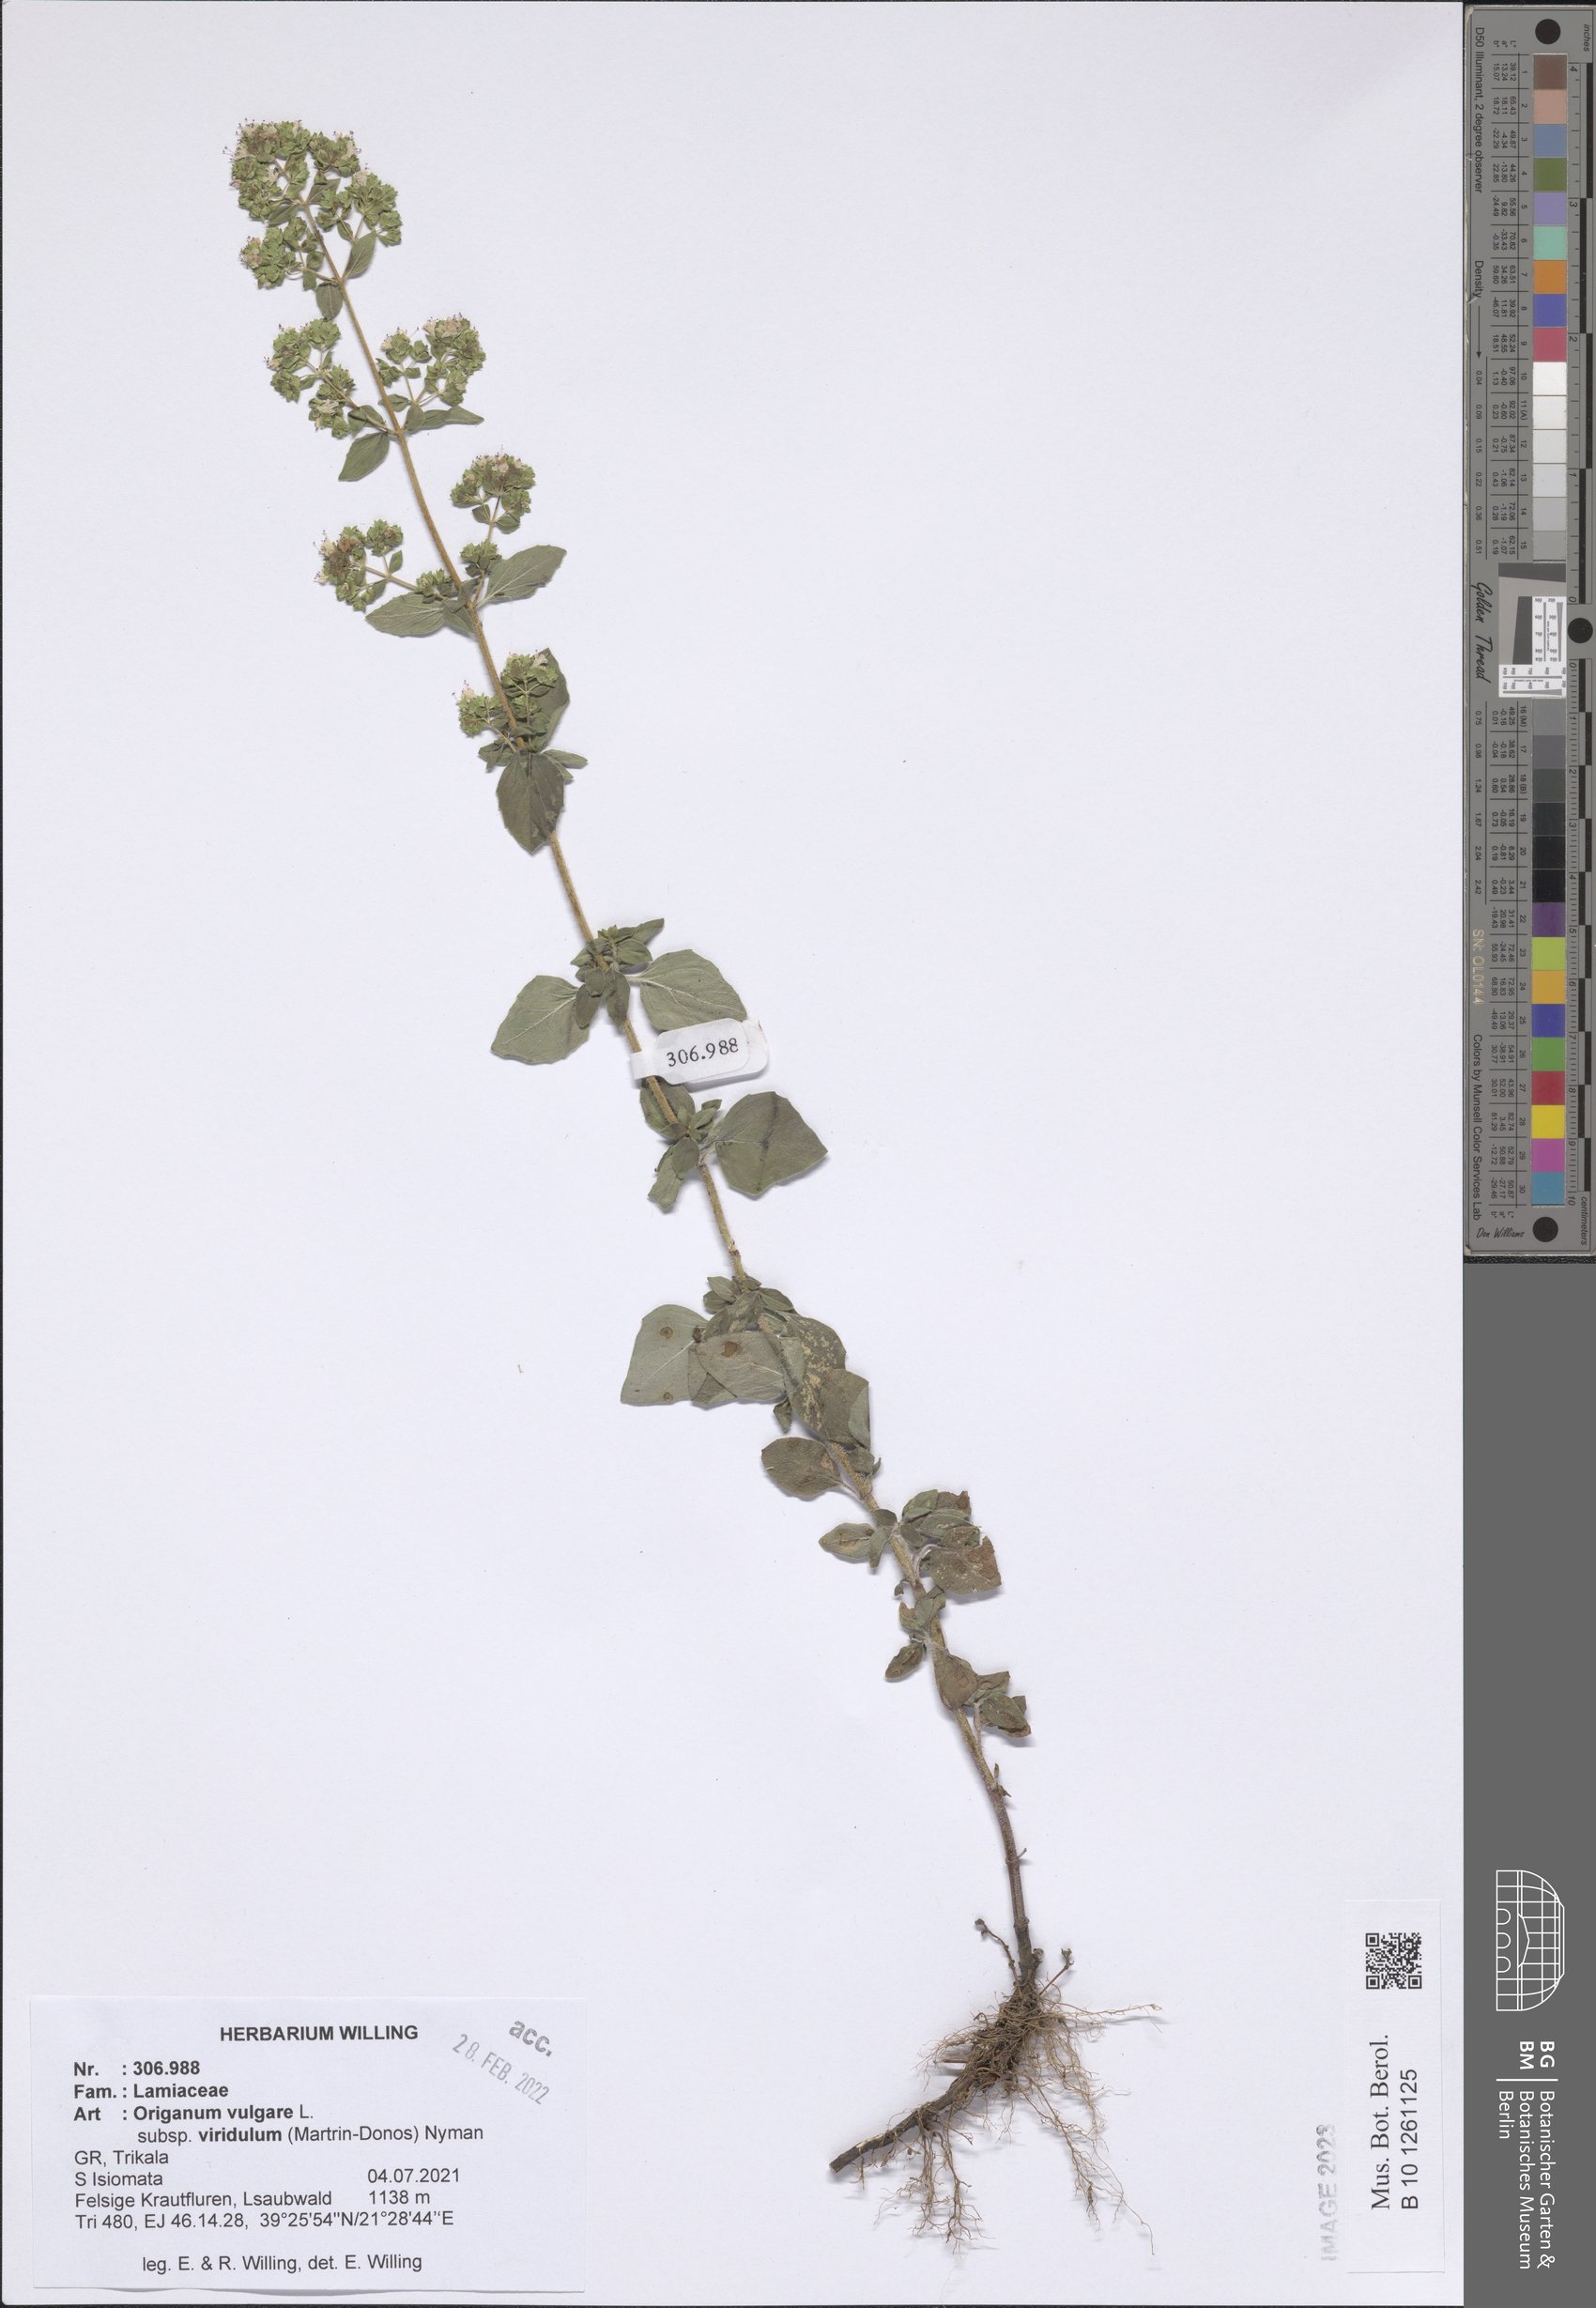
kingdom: Plantae
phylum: Tracheophyta
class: Magnoliopsida
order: Lamiales
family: Lamiaceae
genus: Origanum
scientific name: Origanum vulgare
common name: Wild marjoram
